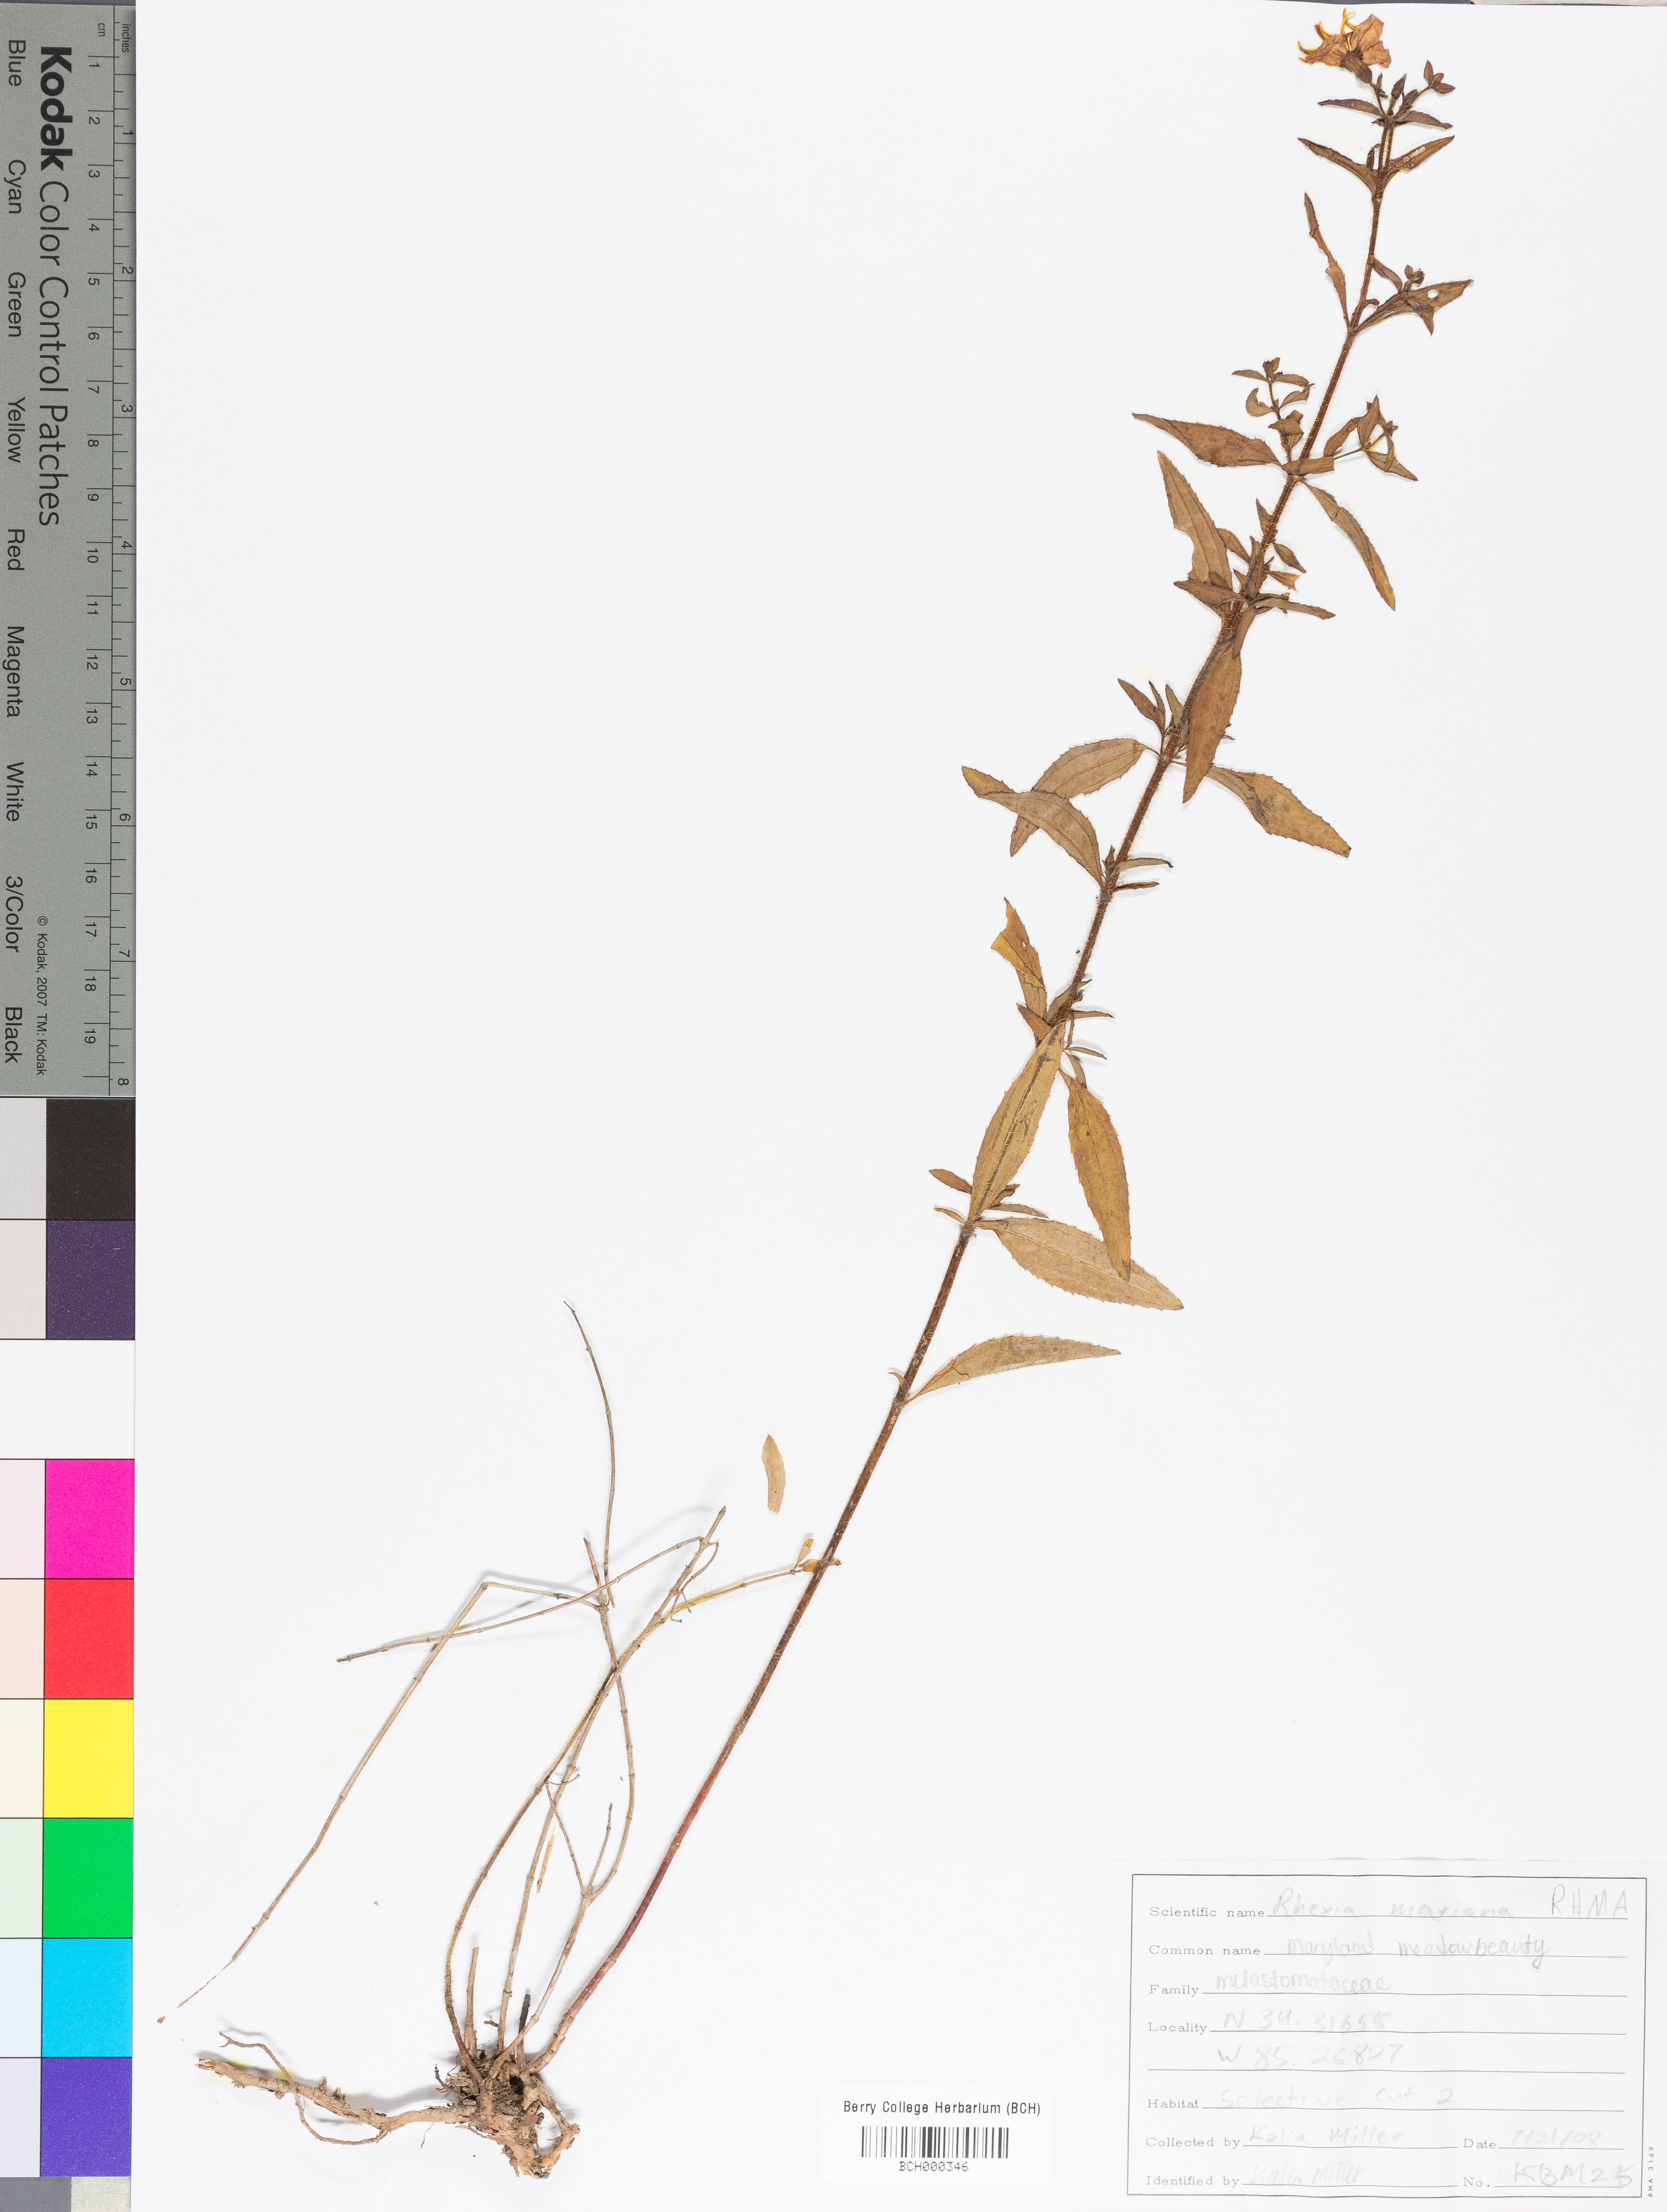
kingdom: Plantae
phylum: Tracheophyta
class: Magnoliopsida
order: Myrtales
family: Melastomataceae
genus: Rhexia
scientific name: Rhexia mariana
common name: Dull meadow-pitcher
